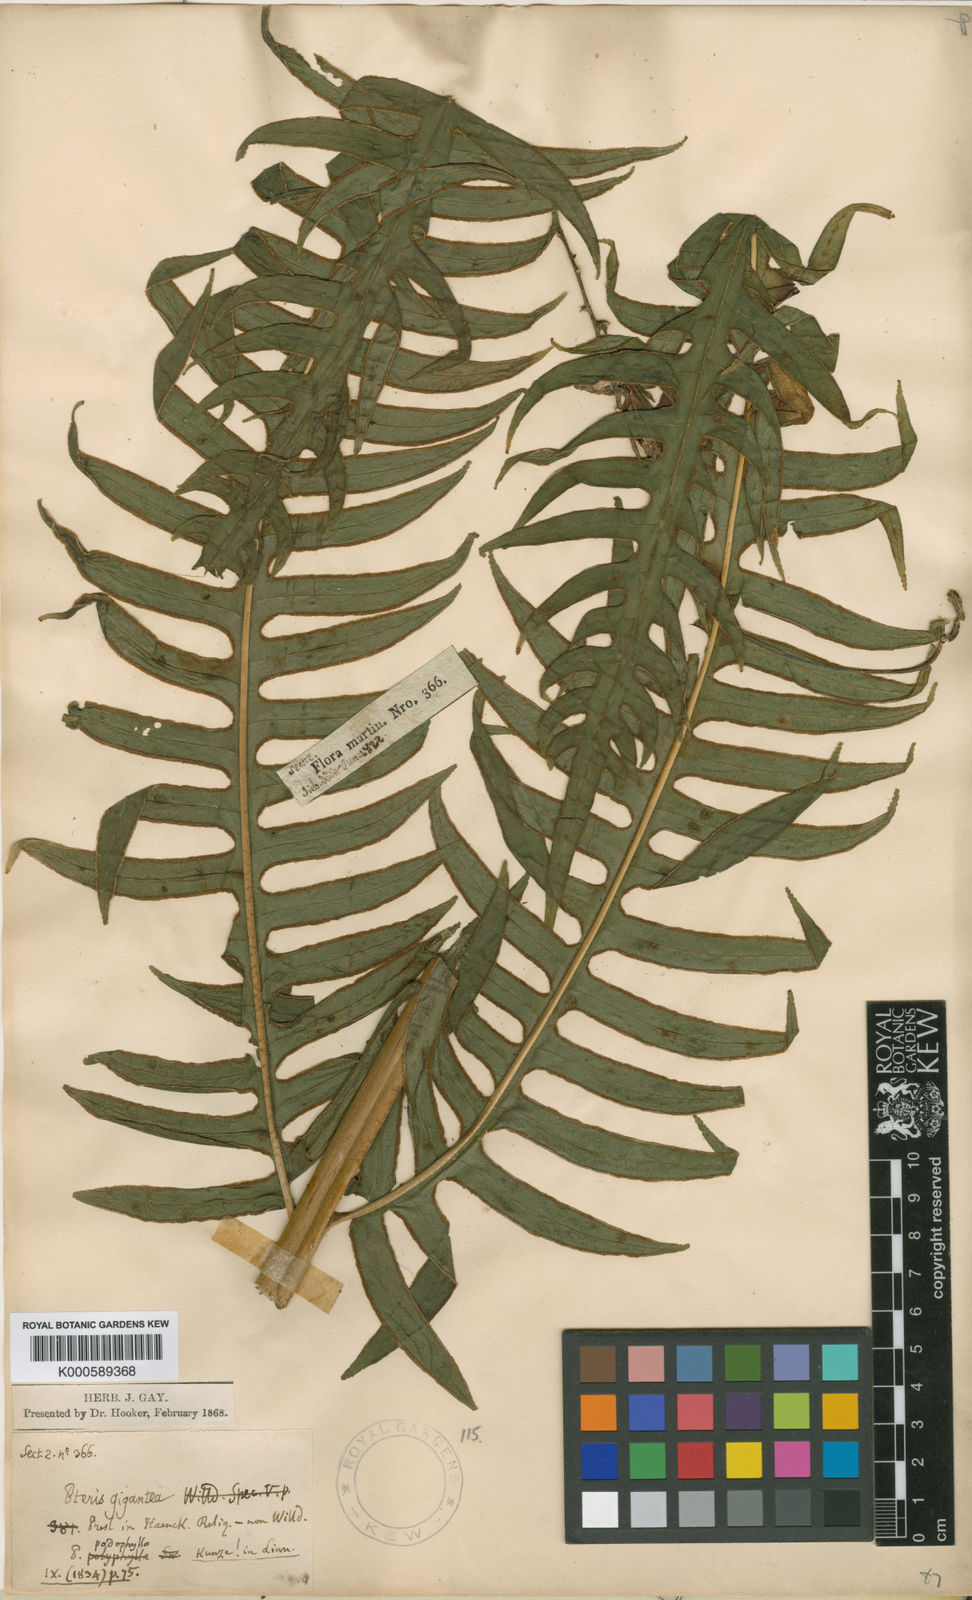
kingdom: Plantae
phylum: Tracheophyta
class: Polypodiopsida
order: Polypodiales
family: Pteridaceae
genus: Pteris
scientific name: Pteris gigantea
